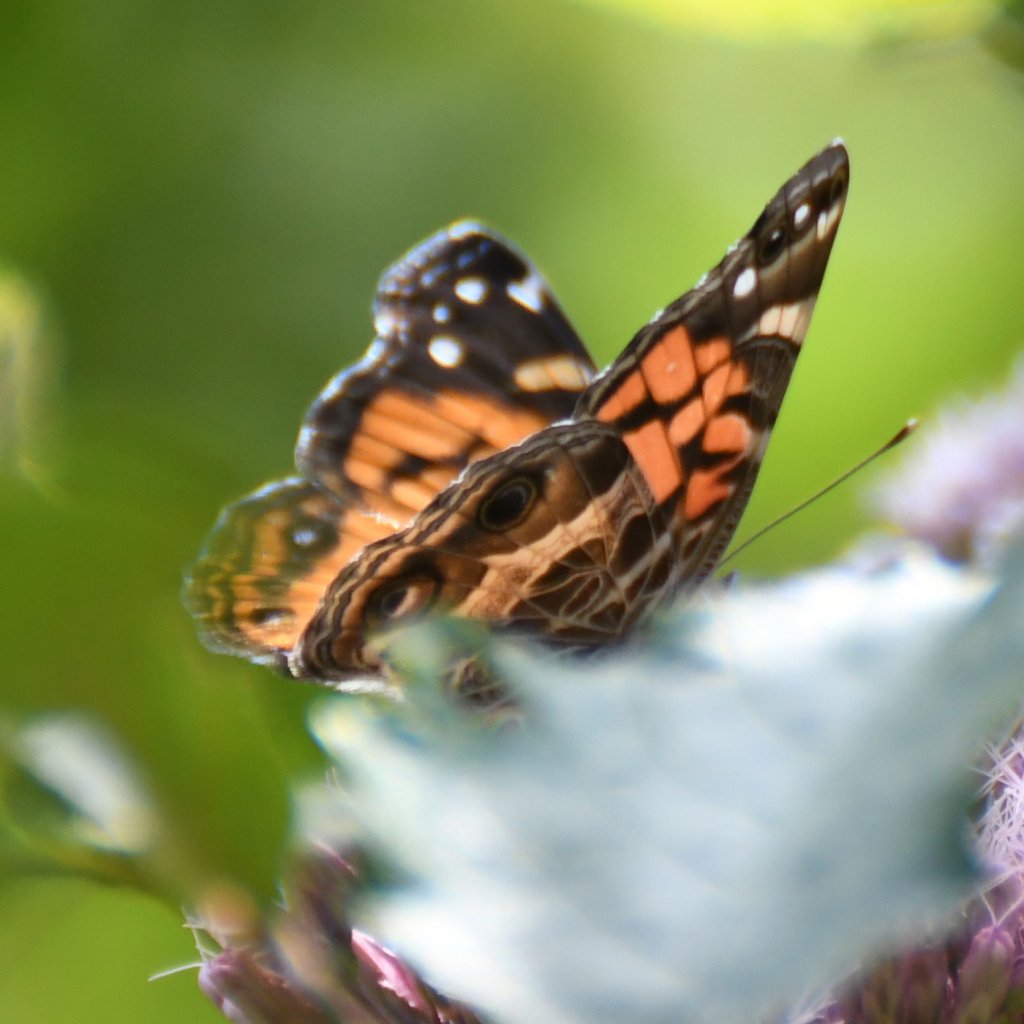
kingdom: Animalia
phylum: Arthropoda
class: Insecta
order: Lepidoptera
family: Nymphalidae
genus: Vanessa
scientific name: Vanessa virginiensis
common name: American Lady
